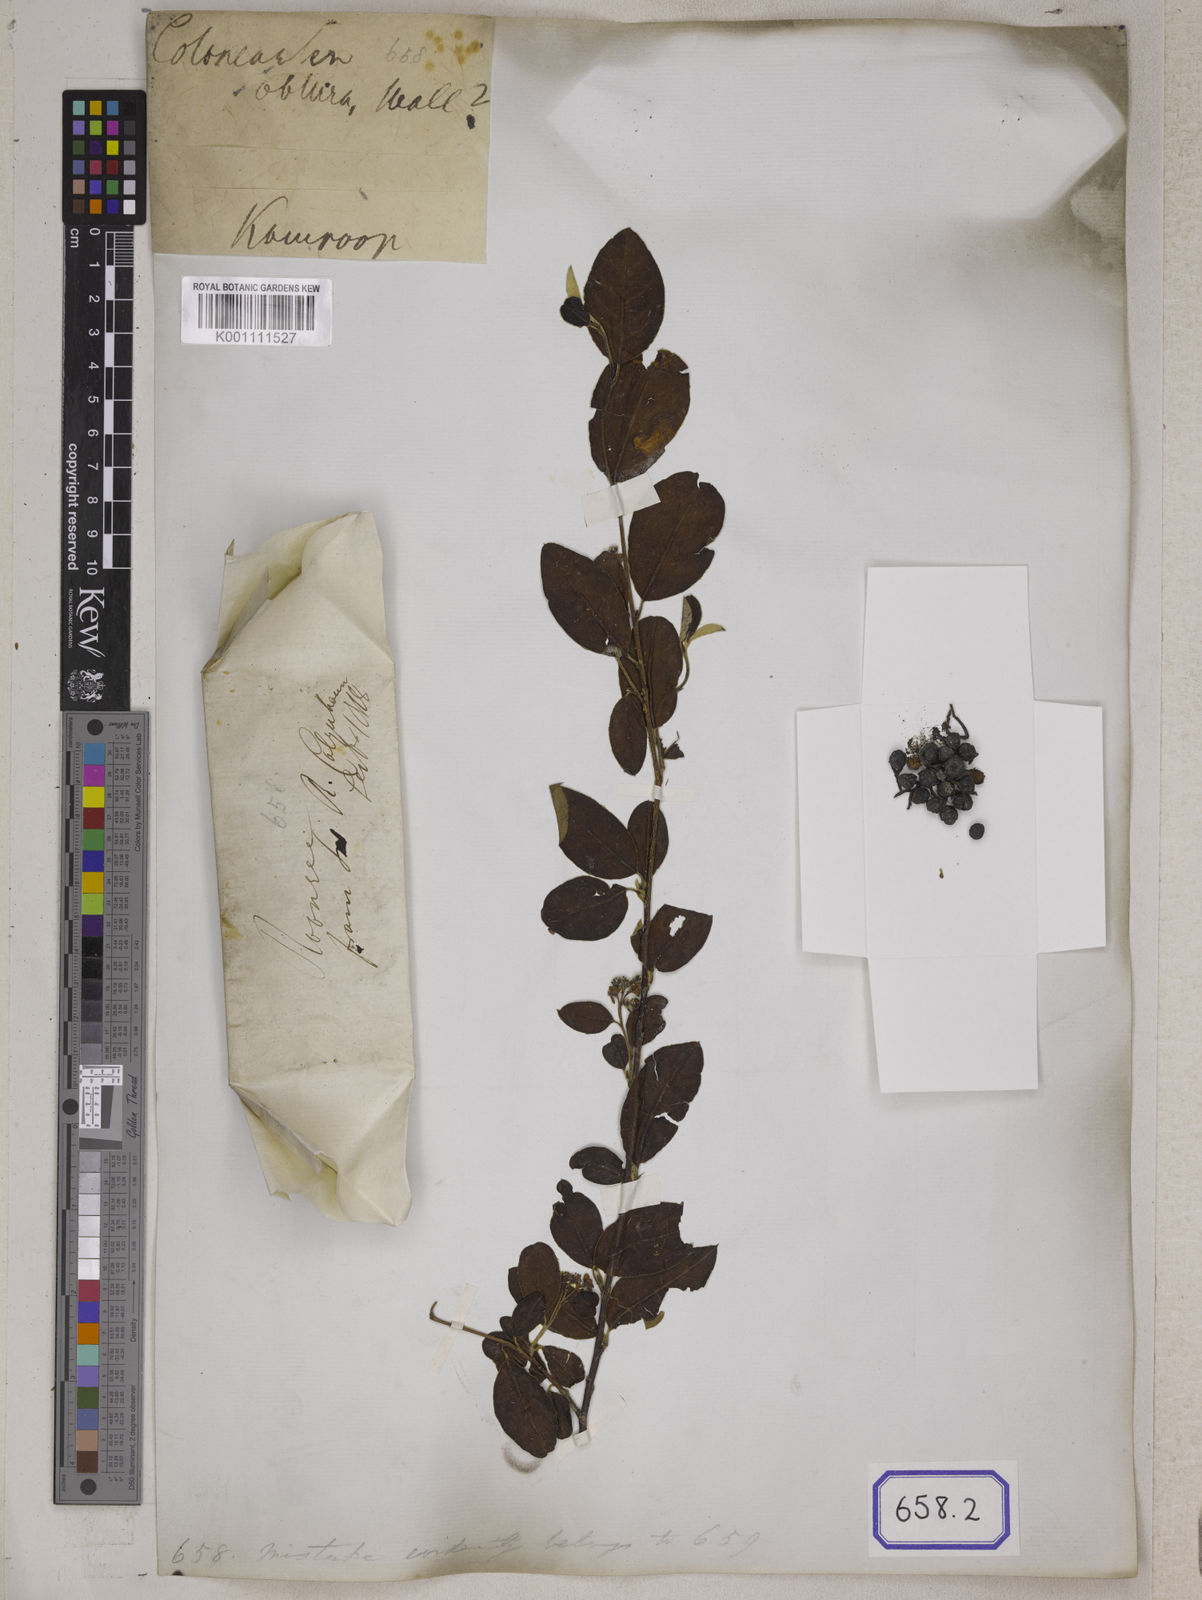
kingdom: Plantae
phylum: Tracheophyta
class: Magnoliopsida
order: Rosales
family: Rosaceae
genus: Cotoneaster
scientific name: Cotoneaster affinis
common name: Purpleberry cotoneaster
